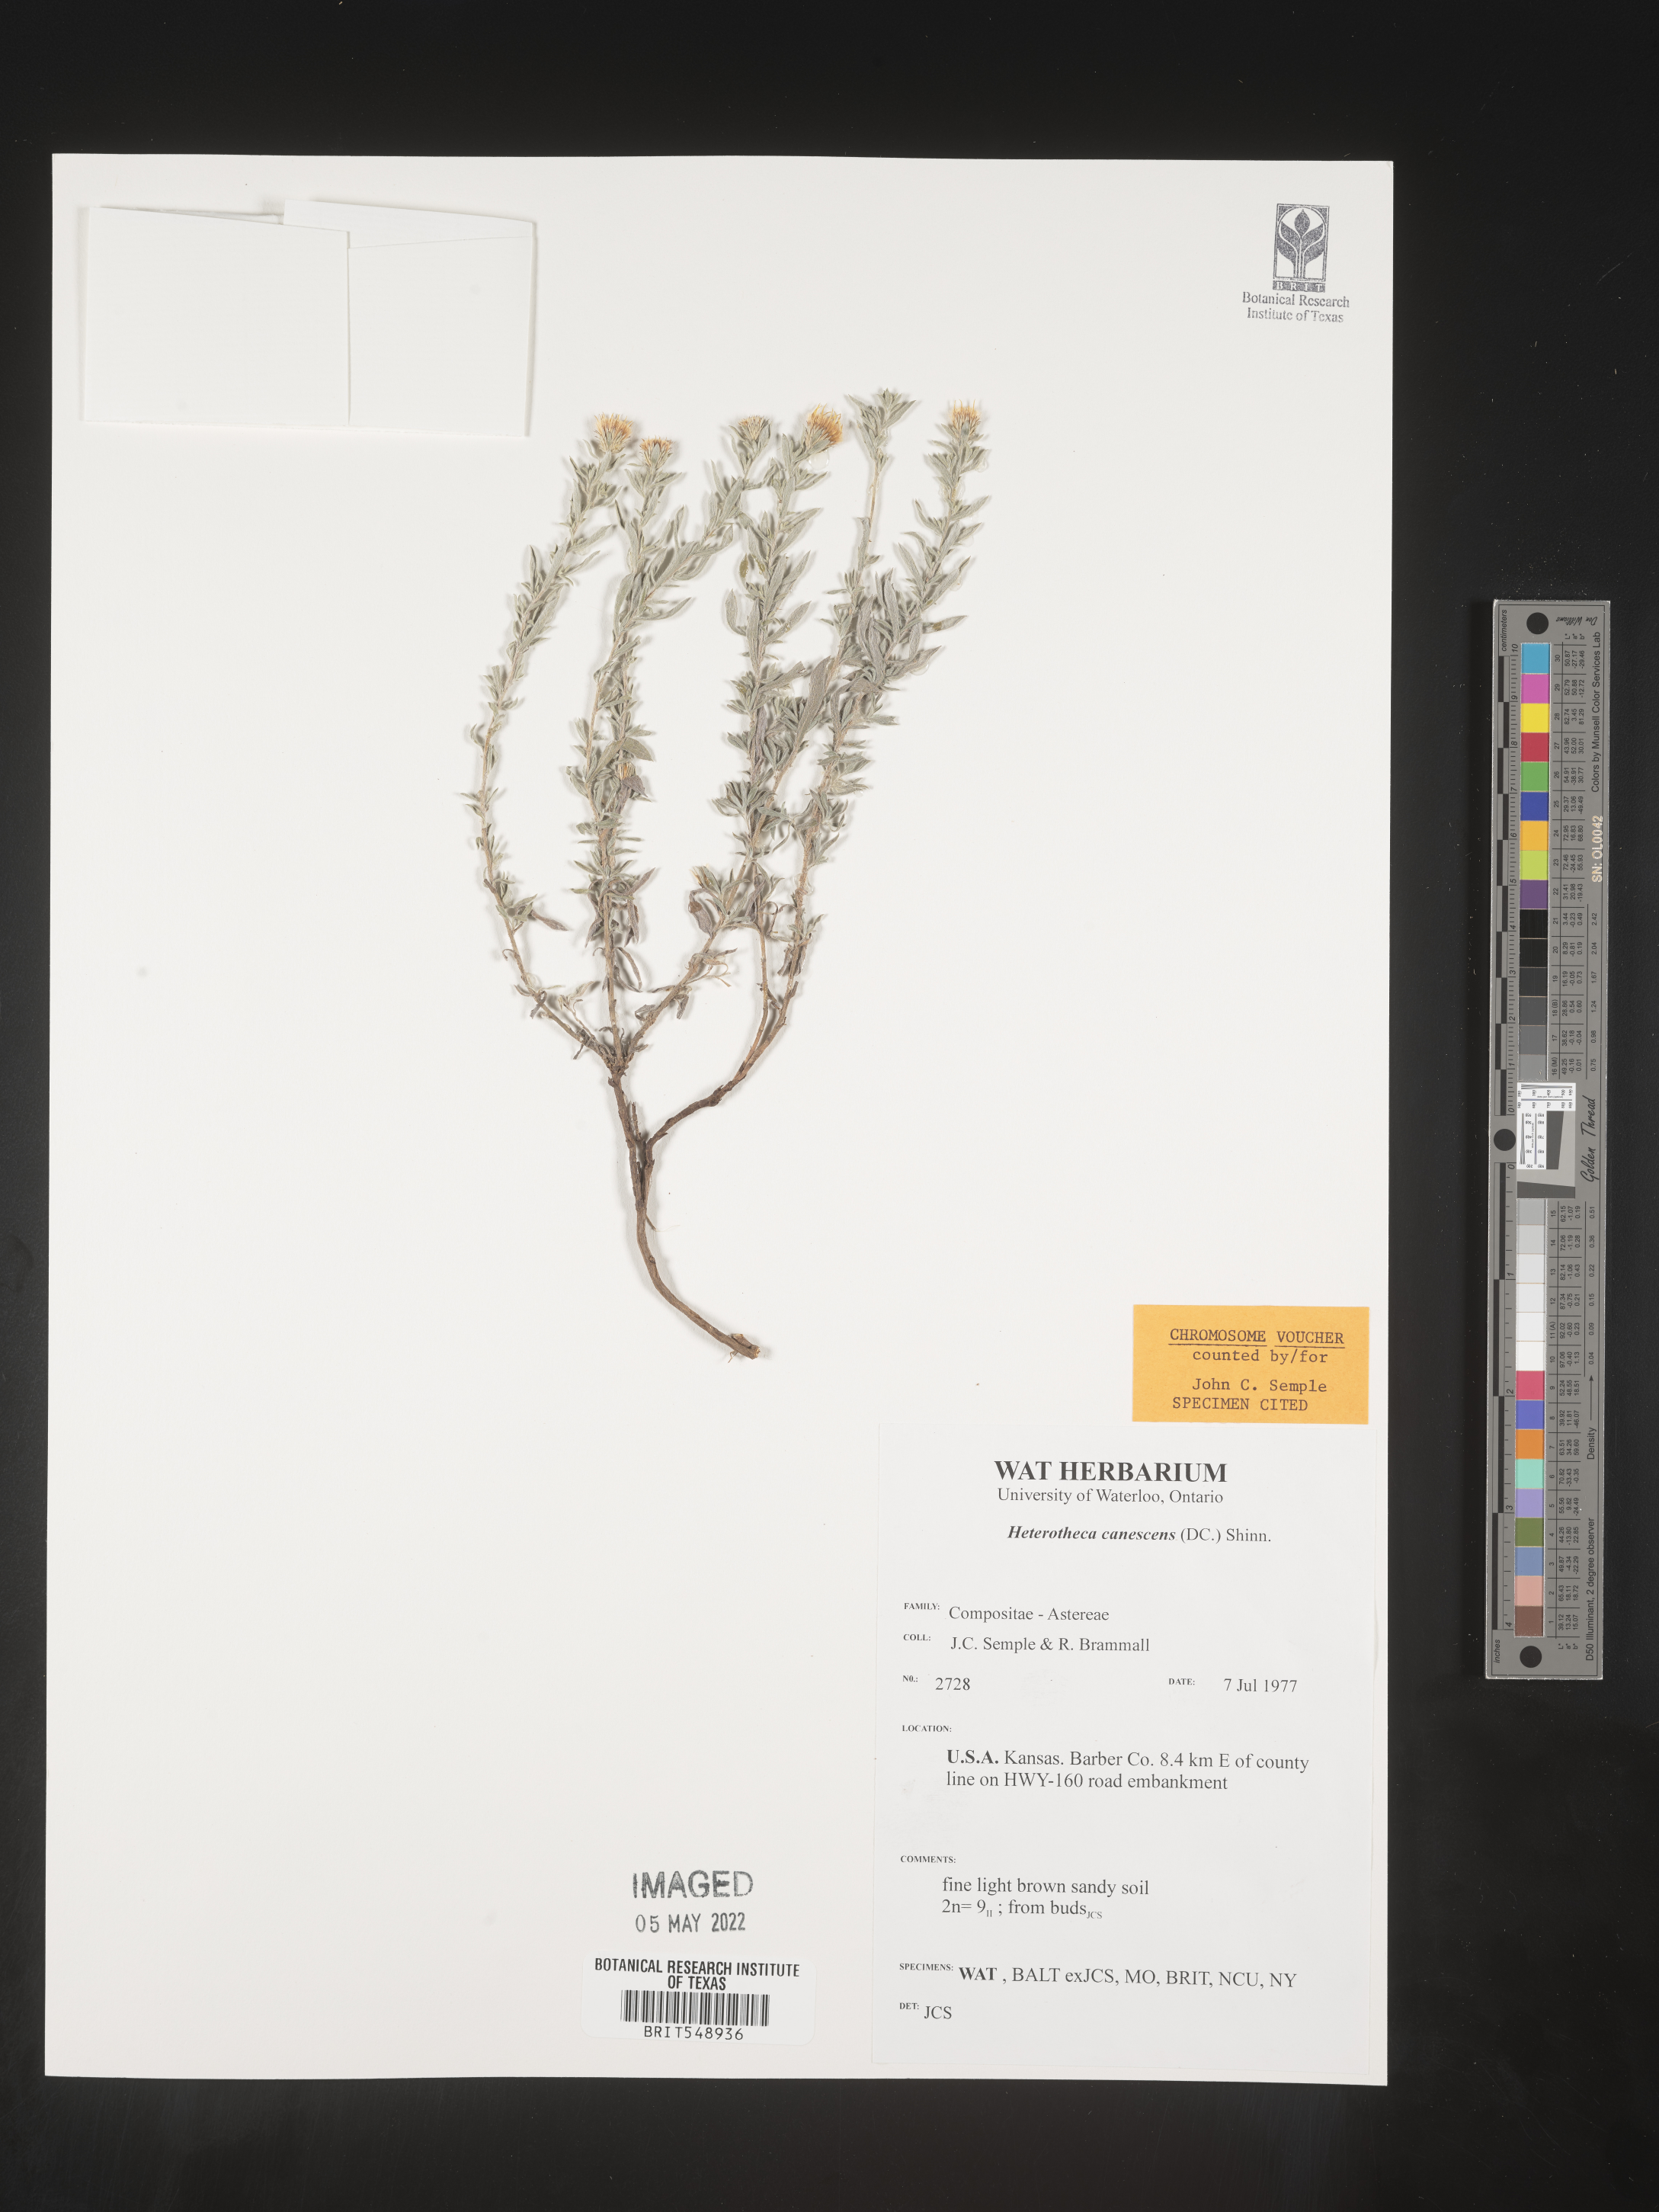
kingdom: Plantae
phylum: Tracheophyta
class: Magnoliopsida
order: Asterales
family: Asteraceae
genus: Heterotheca
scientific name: Heterotheca canescens
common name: Hoary golden-aster
